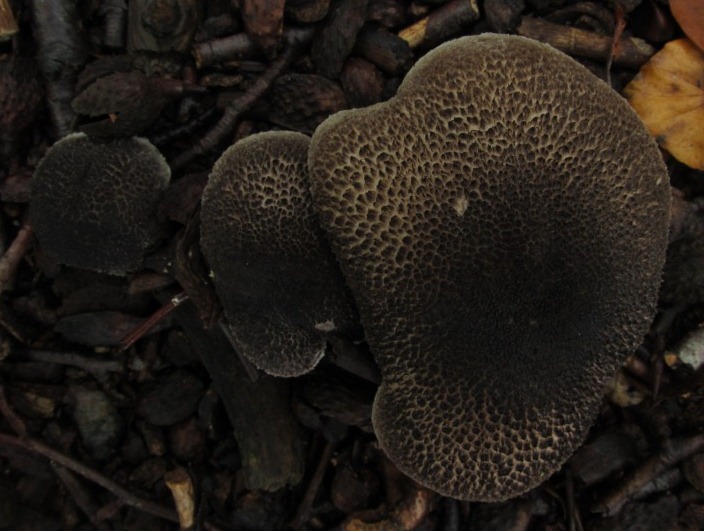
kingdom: Fungi
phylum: Basidiomycota
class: Agaricomycetes
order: Agaricales
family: Tricholomataceae
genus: Tricholoma
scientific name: Tricholoma atrosquamosum
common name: sortskællet ridderhat
